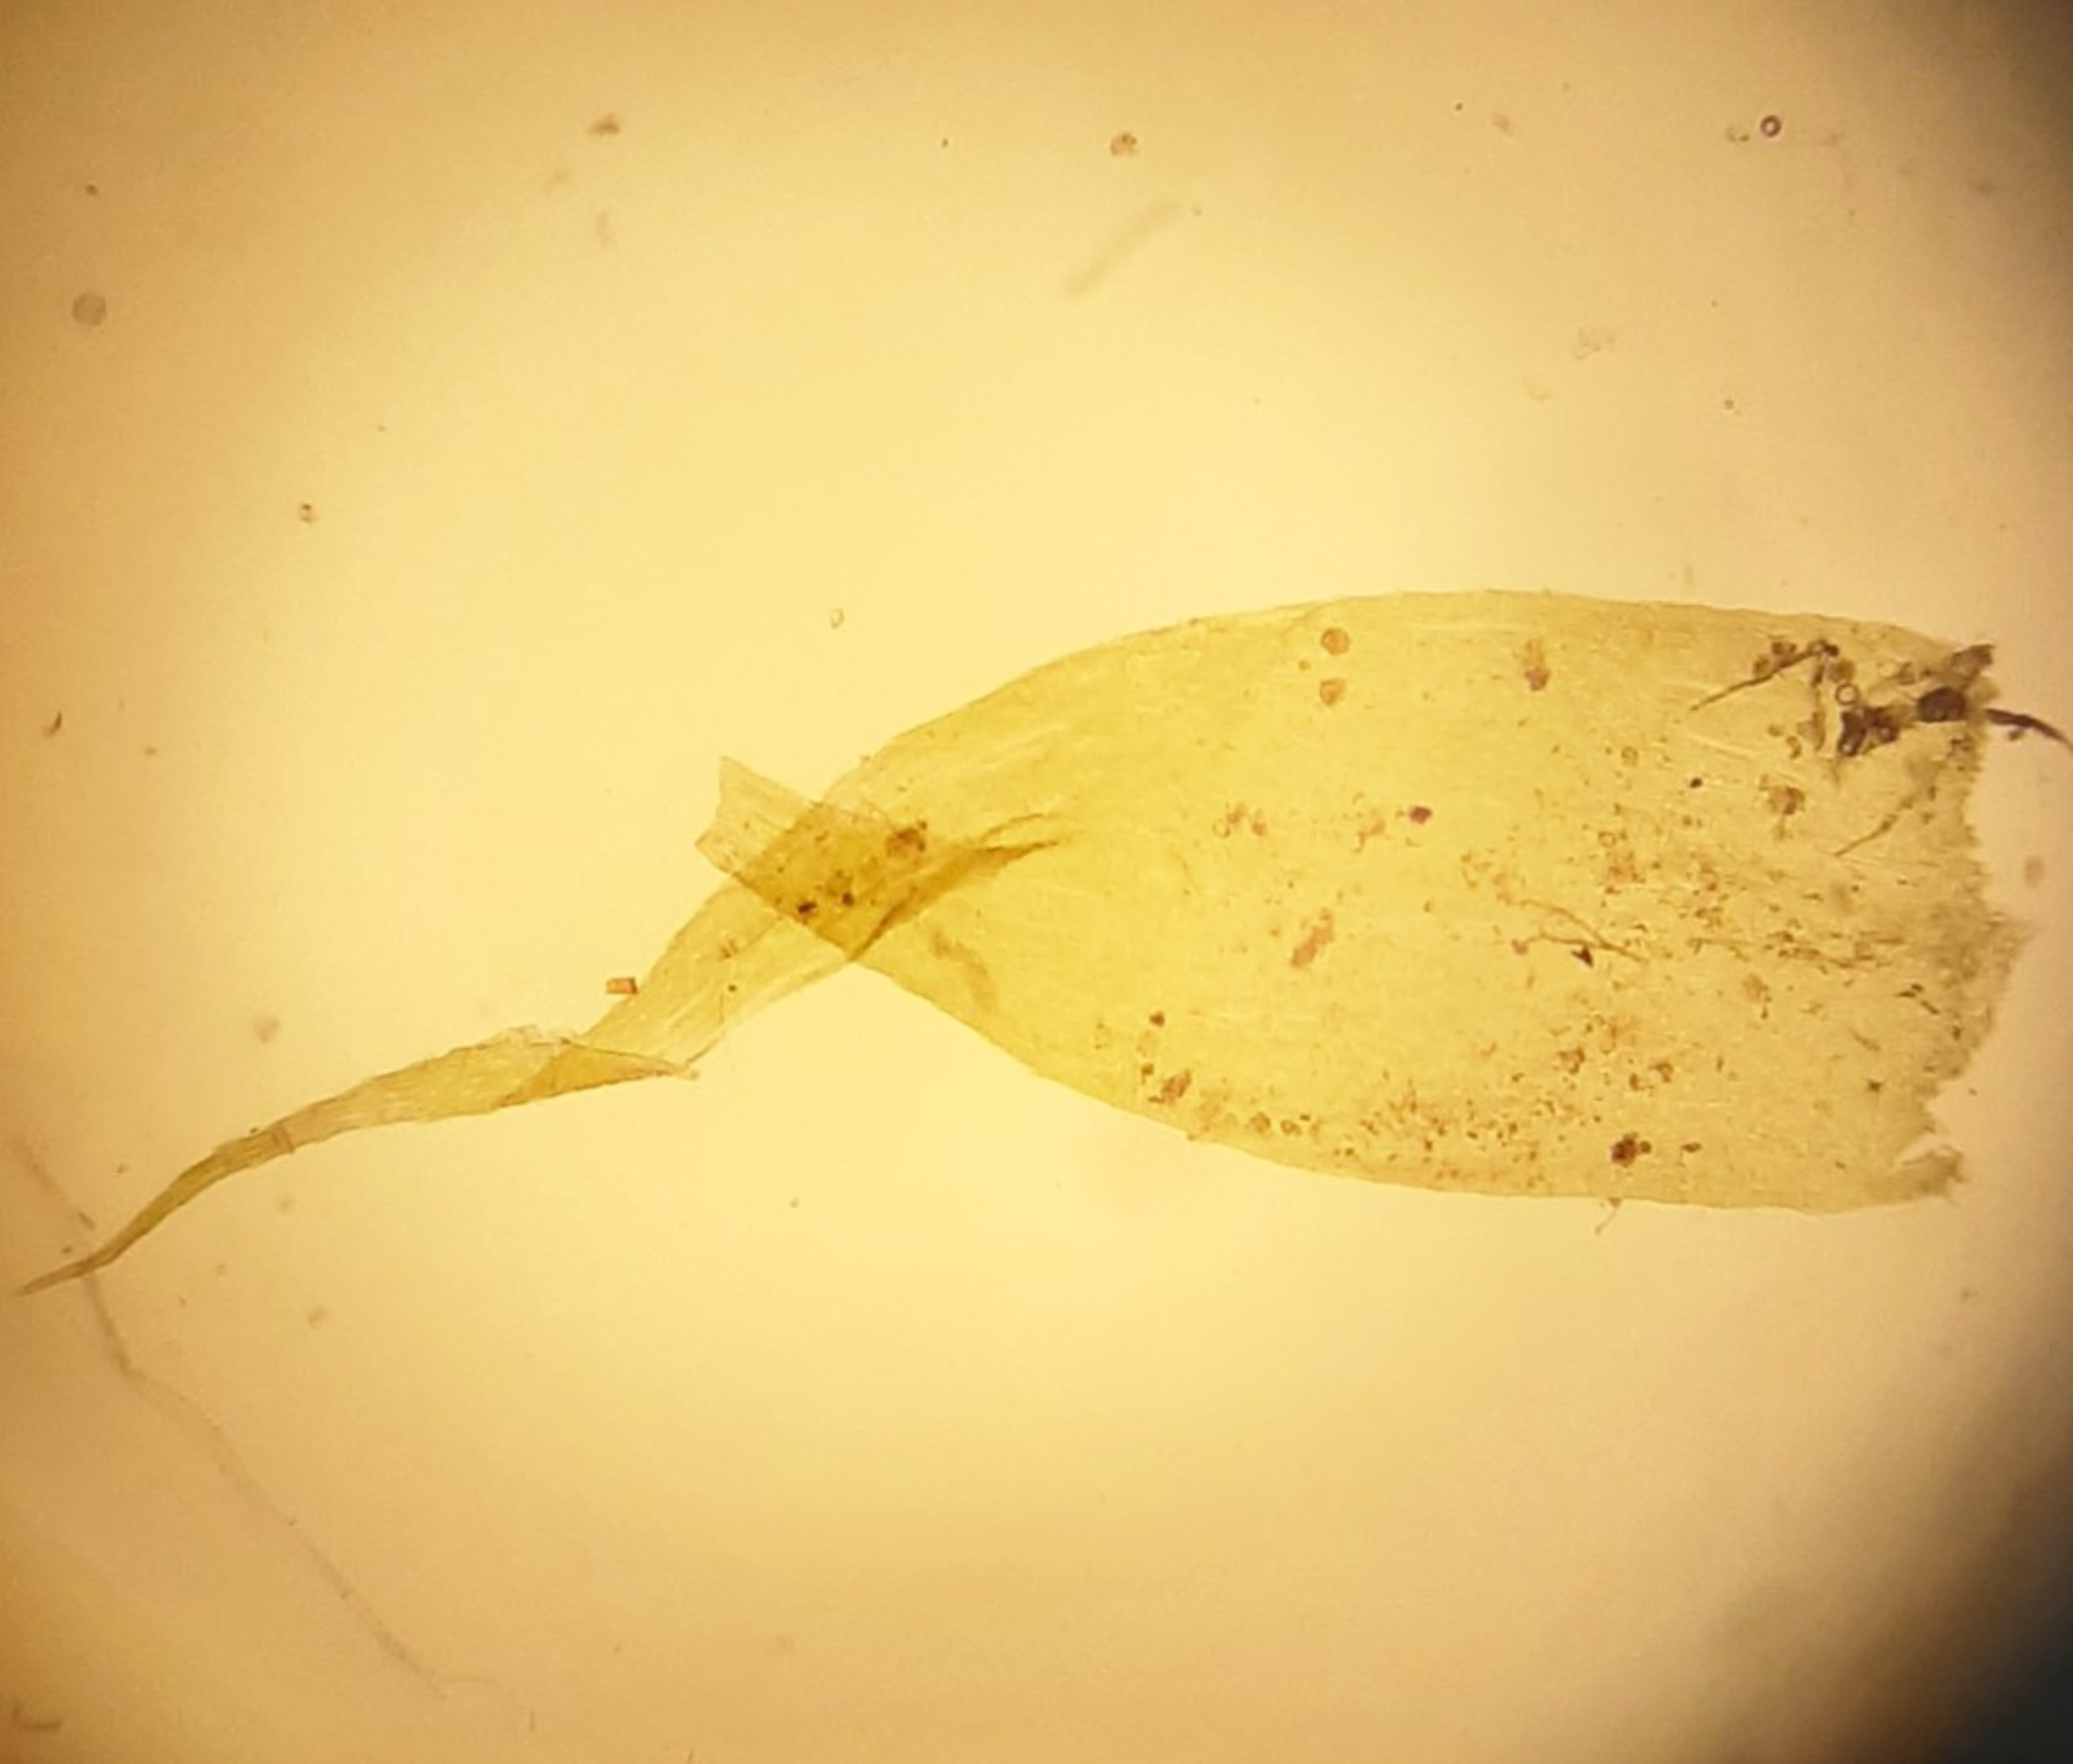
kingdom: Plantae
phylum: Bryophyta
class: Bryopsida
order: Hypnales
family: Plagiotheciaceae
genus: Herzogiella
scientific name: Herzogiella seligeri
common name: Stub-pølsekapsel
